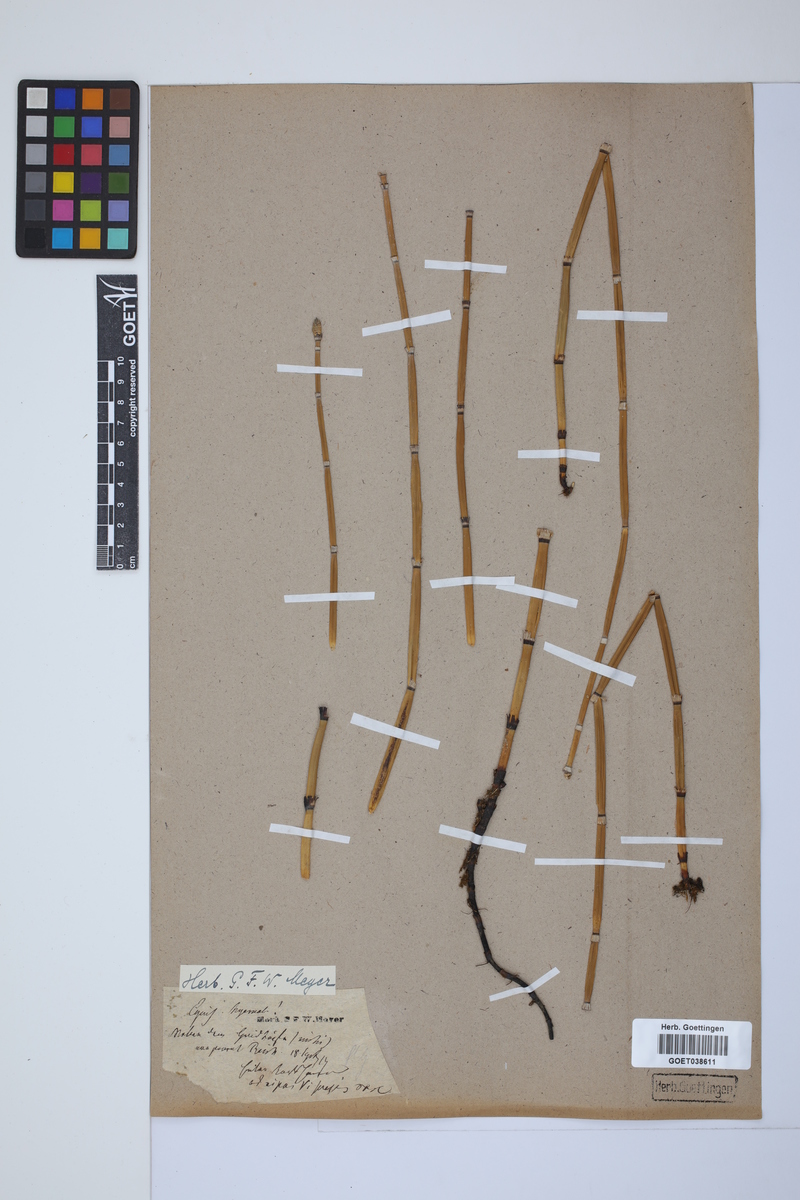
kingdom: Plantae
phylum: Tracheophyta
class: Polypodiopsida
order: Equisetales
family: Equisetaceae
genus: Equisetum
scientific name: Equisetum hyemale
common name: Rough horsetail
